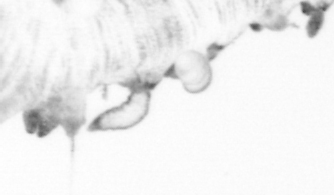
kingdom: Animalia
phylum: Annelida
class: Polychaeta
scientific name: Polychaeta
